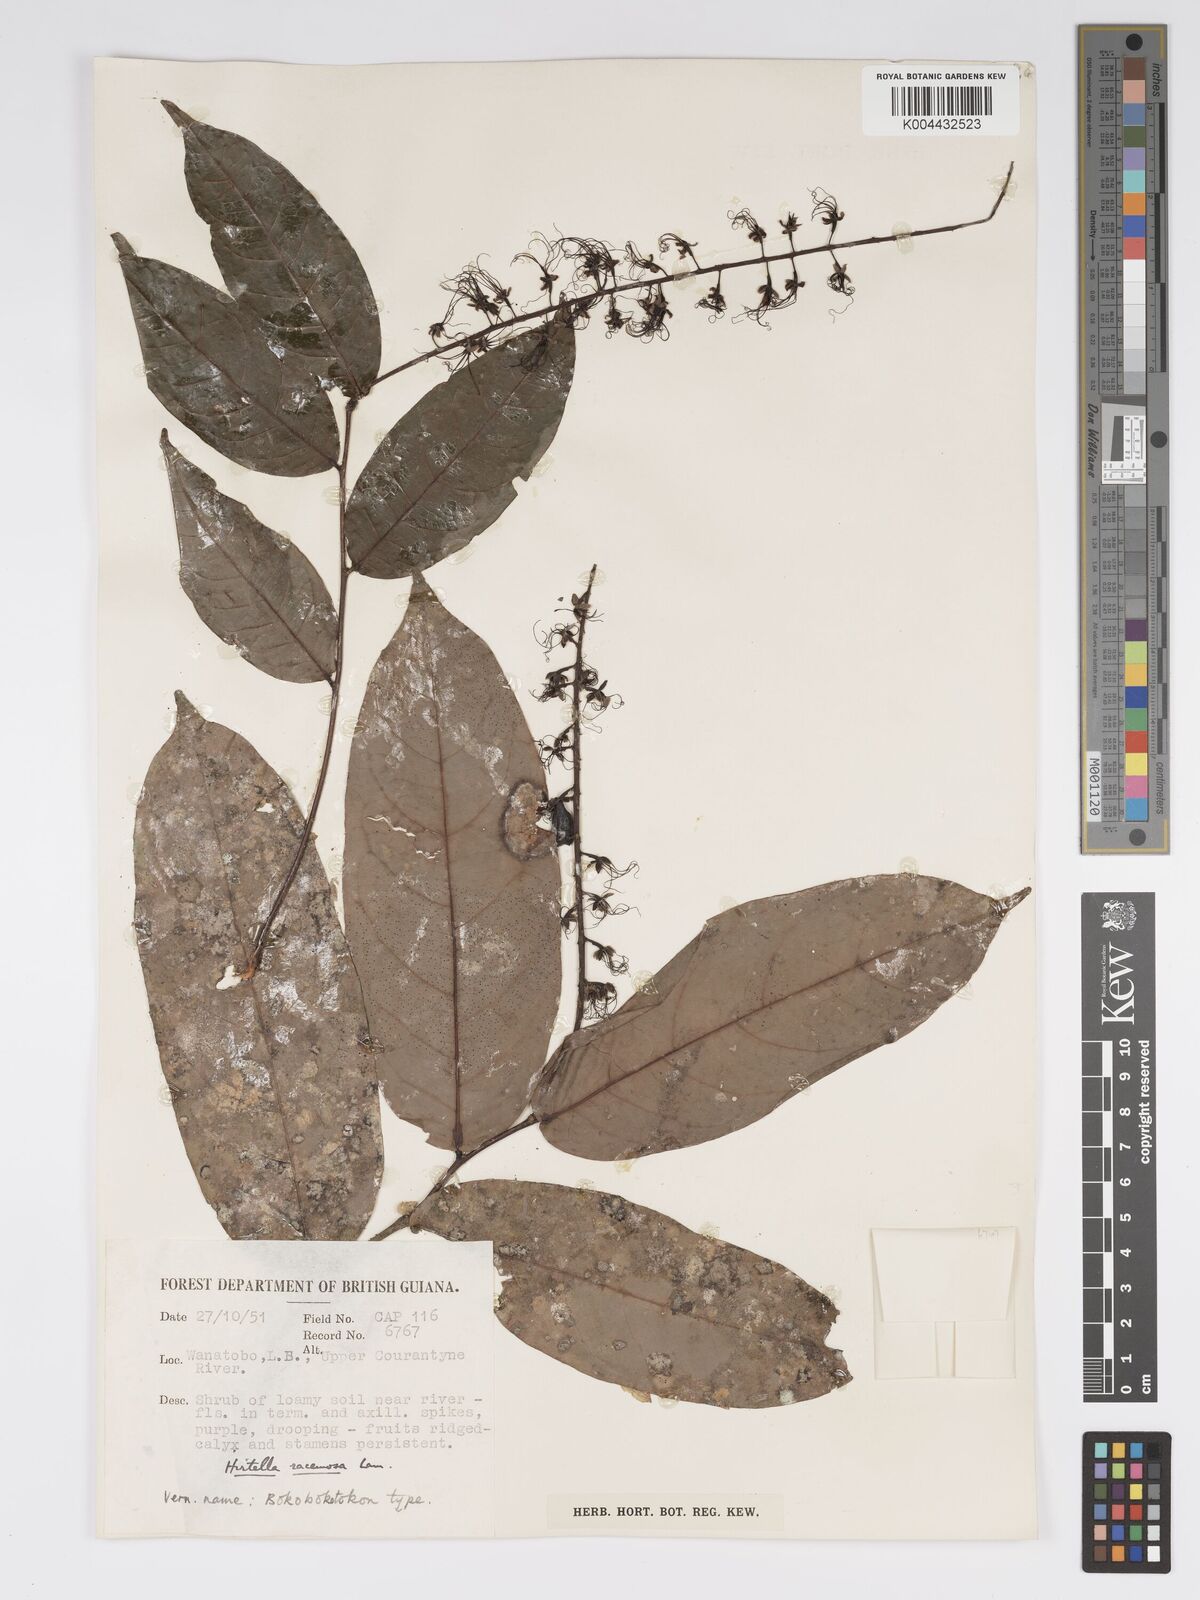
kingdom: Plantae
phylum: Tracheophyta
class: Magnoliopsida
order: Malpighiales
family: Chrysobalanaceae
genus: Hirtella
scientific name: Hirtella
